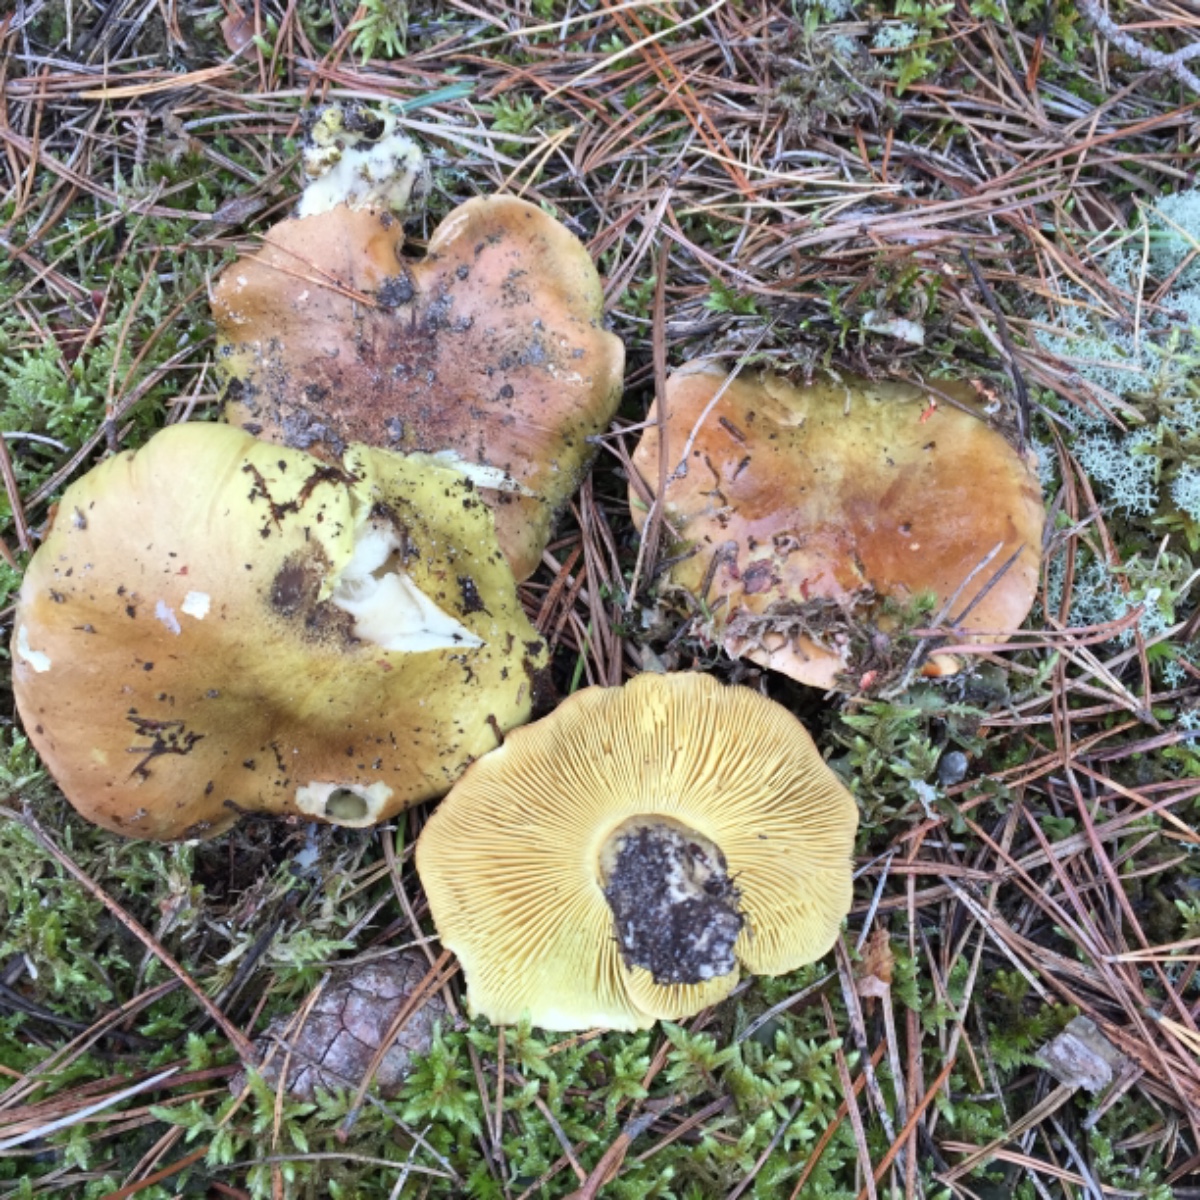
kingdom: Fungi
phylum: Basidiomycota
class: Agaricomycetes
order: Agaricales
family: Tricholomataceae
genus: Tricholoma
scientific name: Tricholoma equestre
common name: ægte ridderhat
